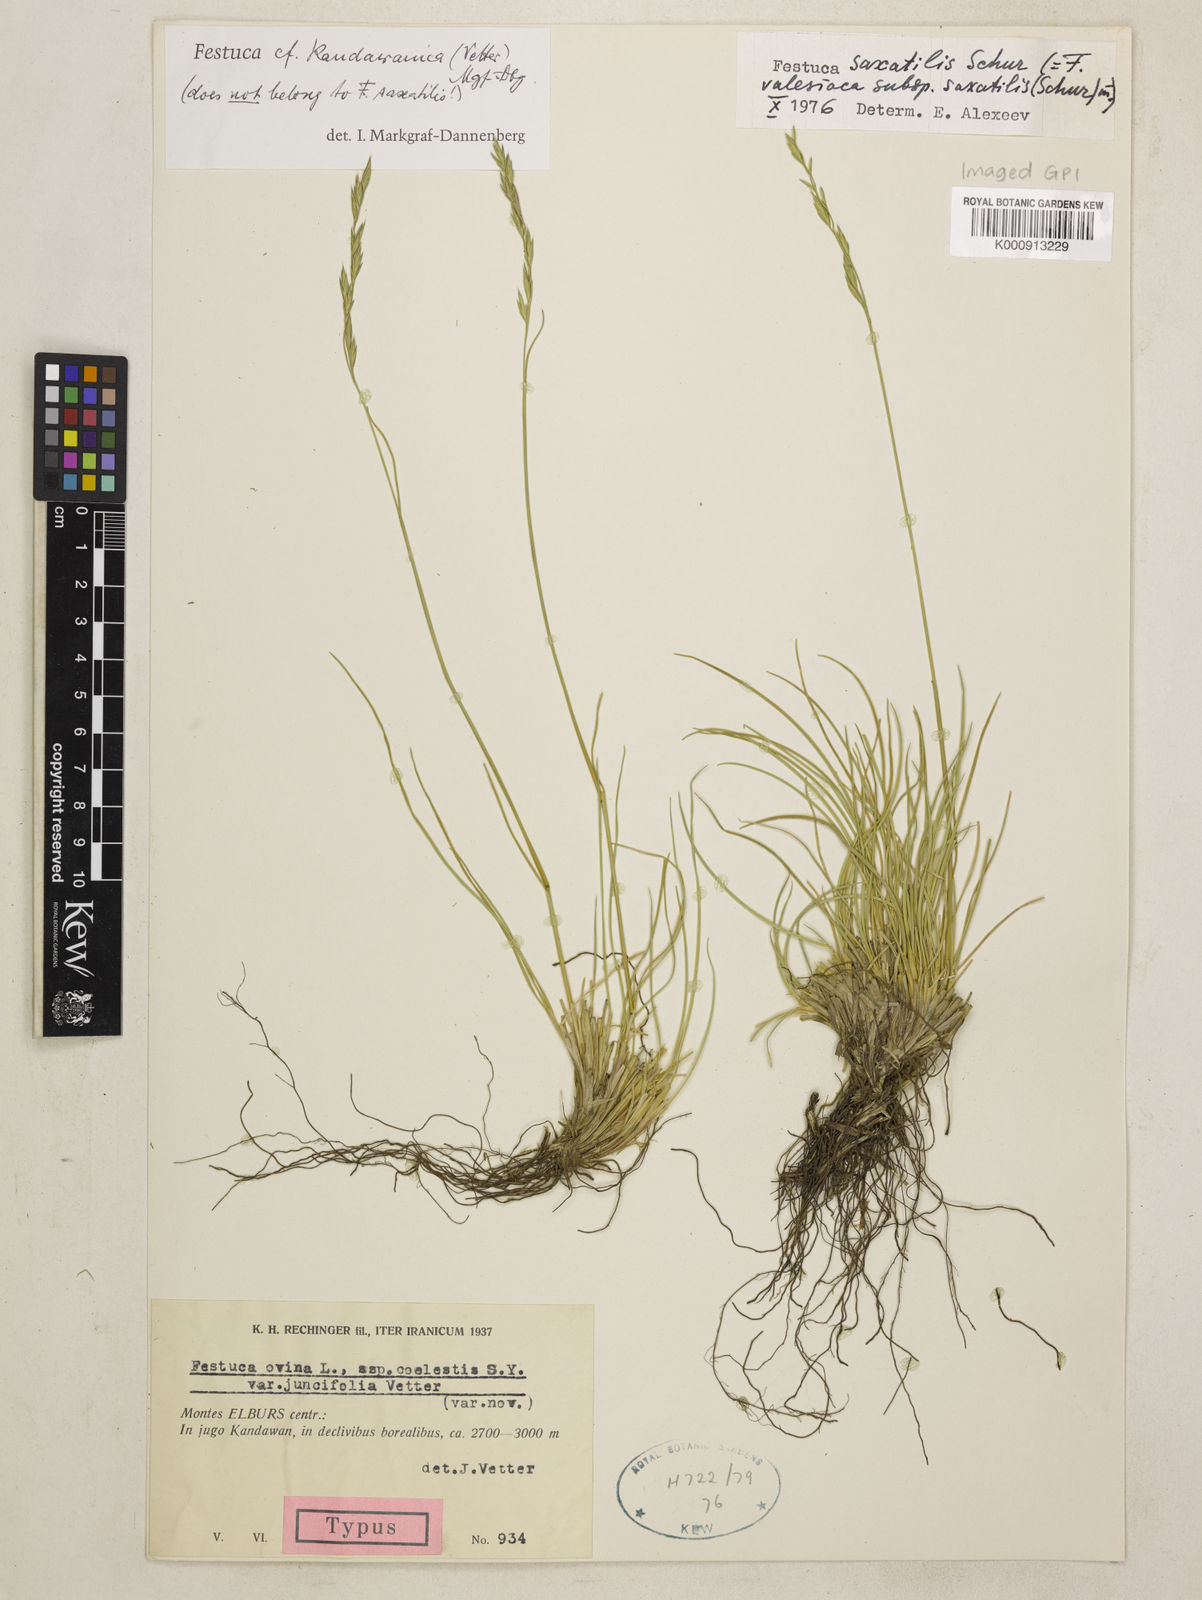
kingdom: Plantae
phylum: Tracheophyta
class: Liliopsida
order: Poales
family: Poaceae
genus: Festuca
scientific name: Festuca valesiaca
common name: Volga fescue
